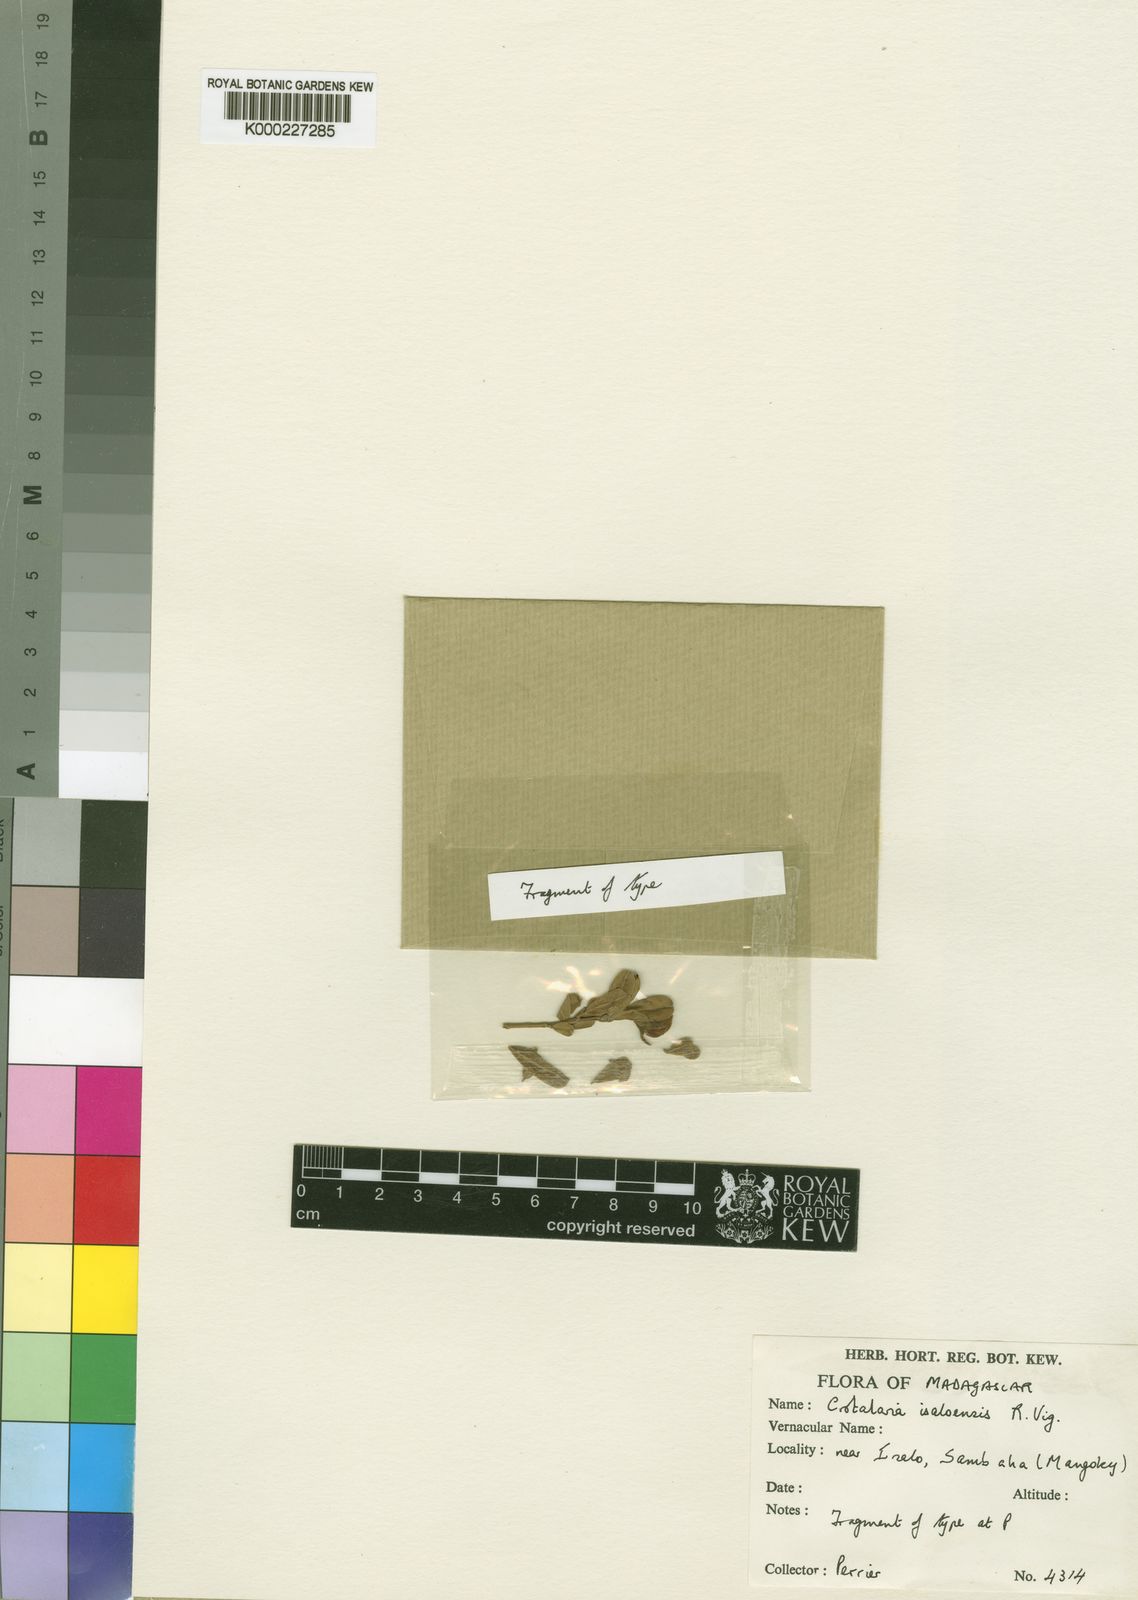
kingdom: Plantae
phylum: Tracheophyta
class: Magnoliopsida
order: Fabales
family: Fabaceae
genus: Crotalaria
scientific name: Crotalaria isaloensis
